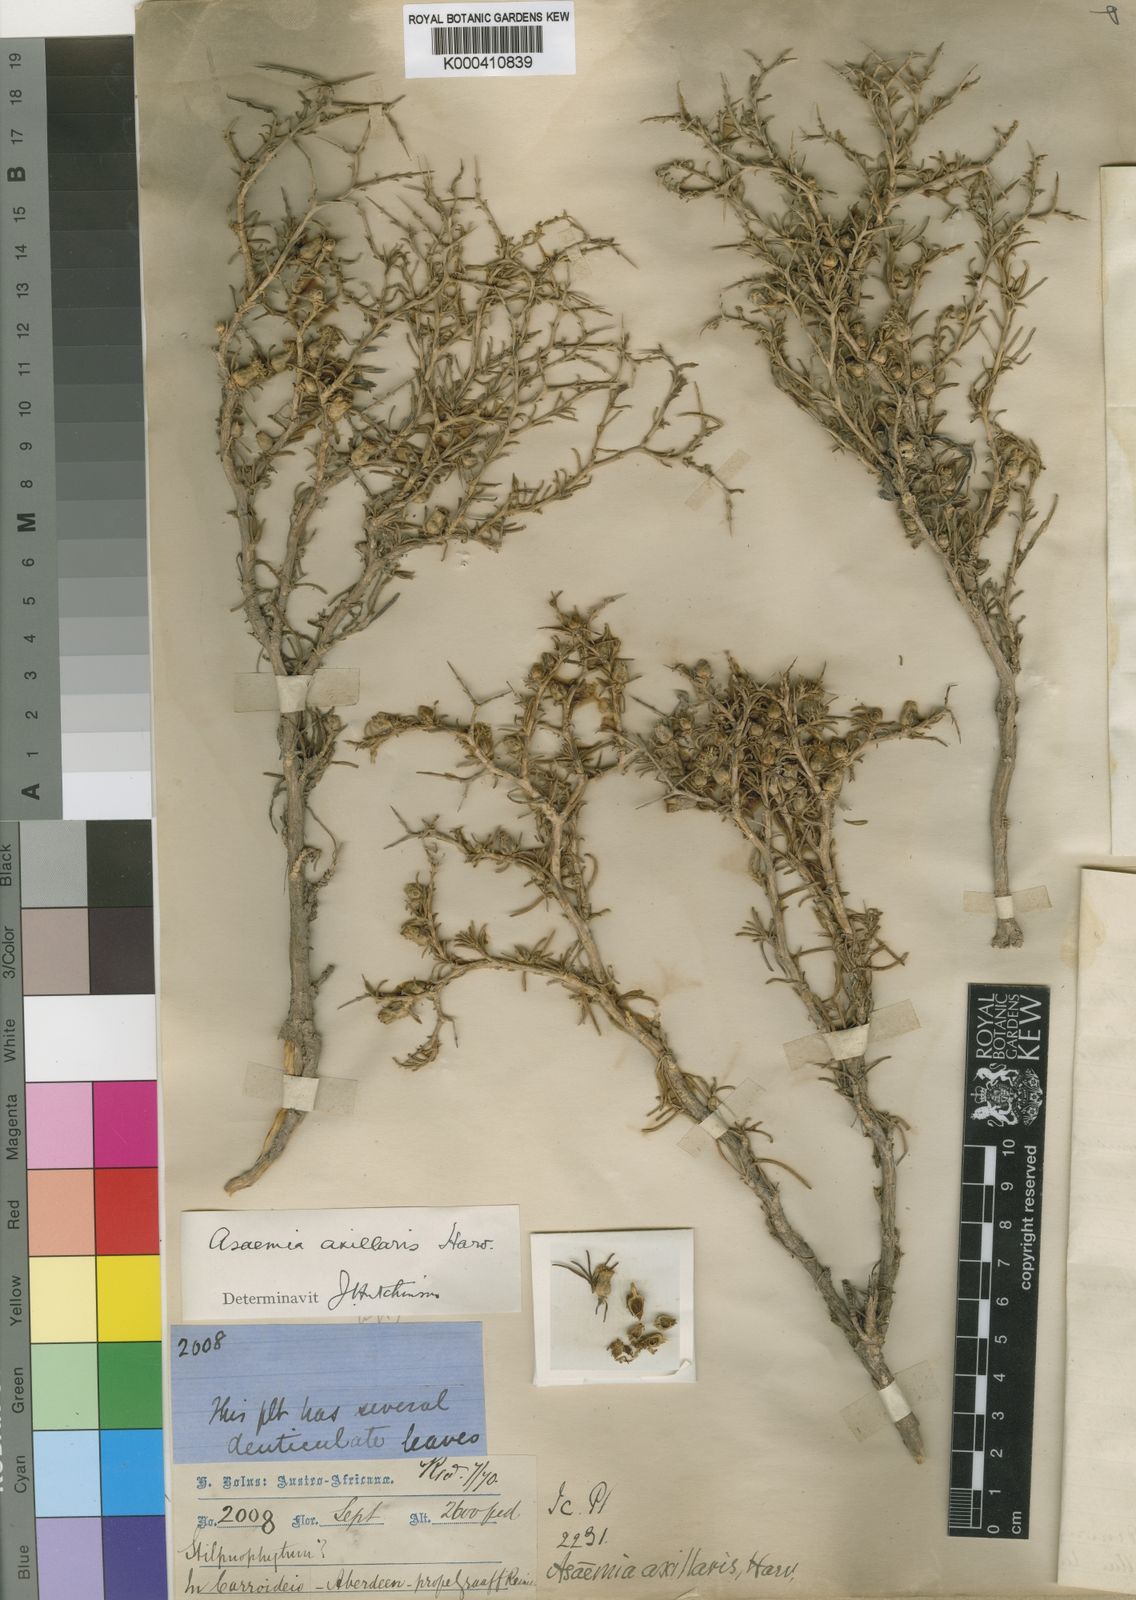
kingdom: Plantae
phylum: Tracheophyta
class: Magnoliopsida
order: Asterales
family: Asteraceae
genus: Athanasia
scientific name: Athanasia minuta
